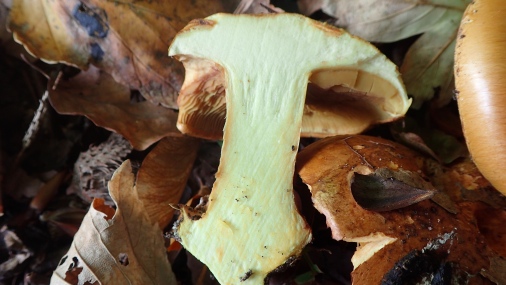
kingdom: Fungi
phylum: Basidiomycota
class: Agaricomycetes
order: Agaricales
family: Cortinariaceae
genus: Calonarius
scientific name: Calonarius alcalinophilus
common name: gyldenbrun slørhat
